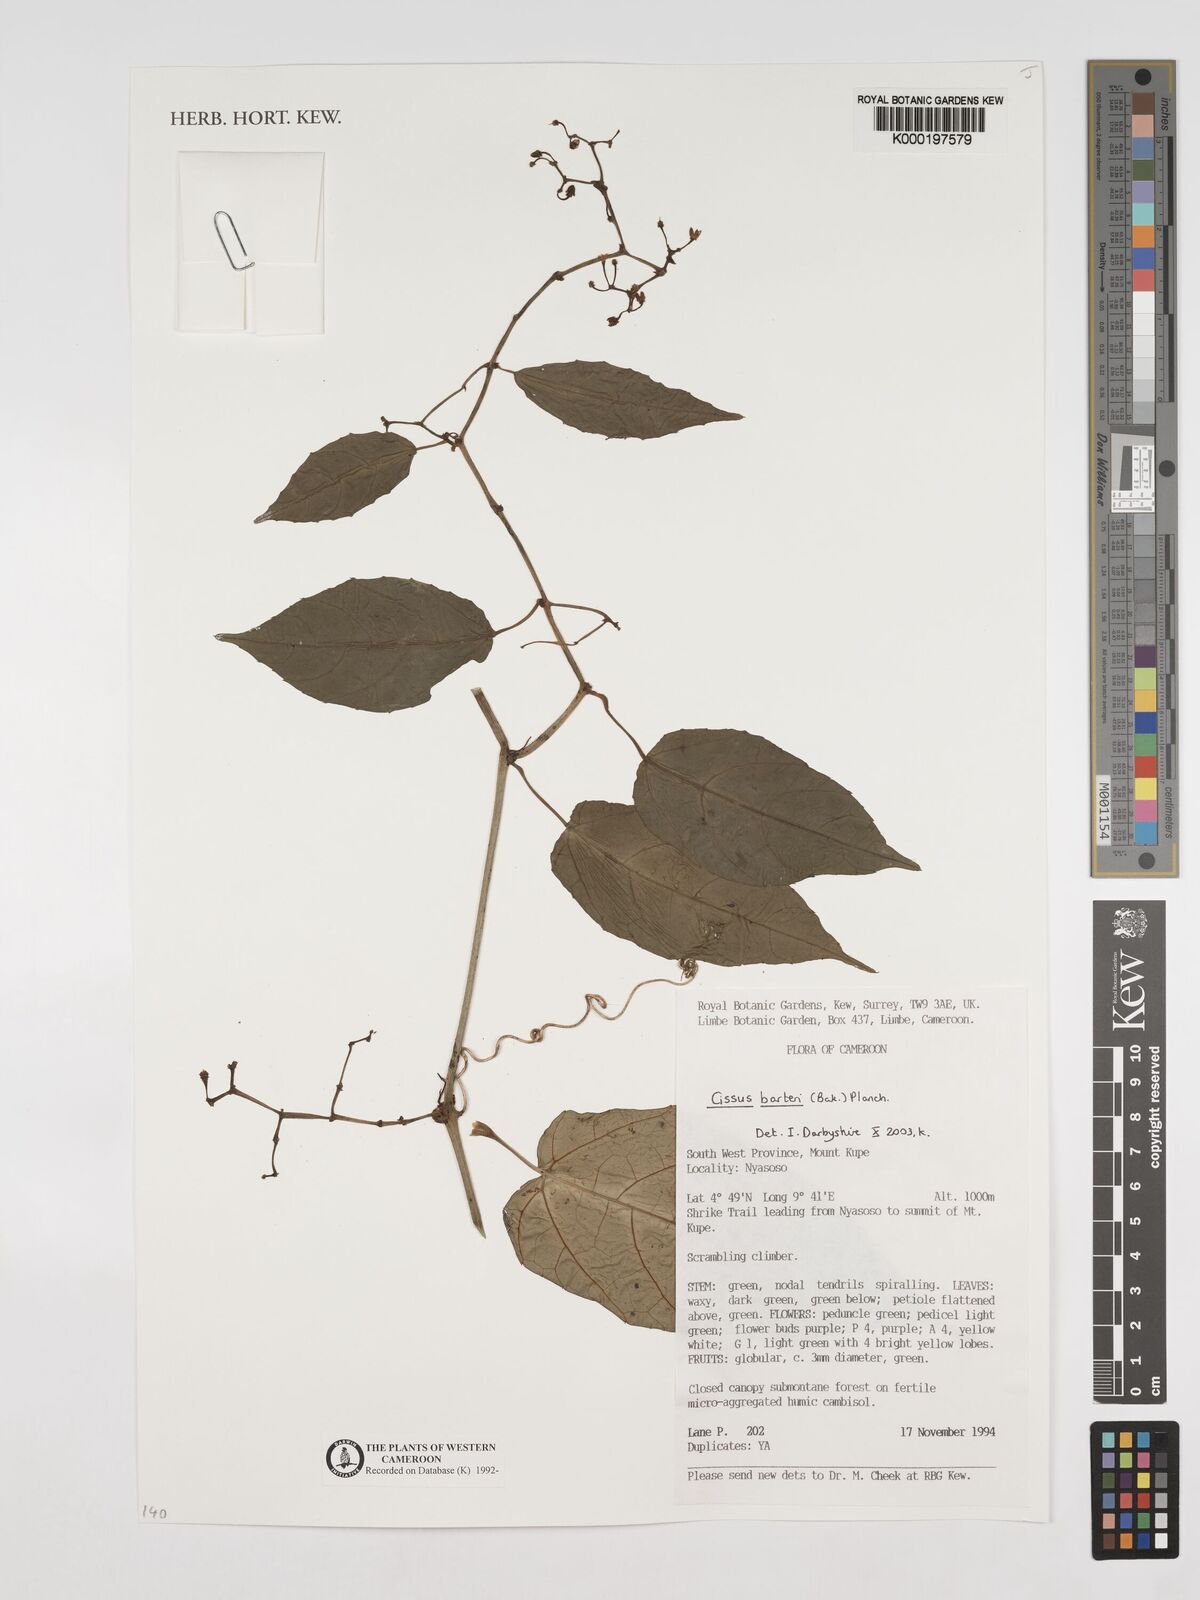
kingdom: Plantae
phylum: Tracheophyta
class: Magnoliopsida
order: Vitales
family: Vitaceae
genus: Cissus
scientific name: Cissus barteri
